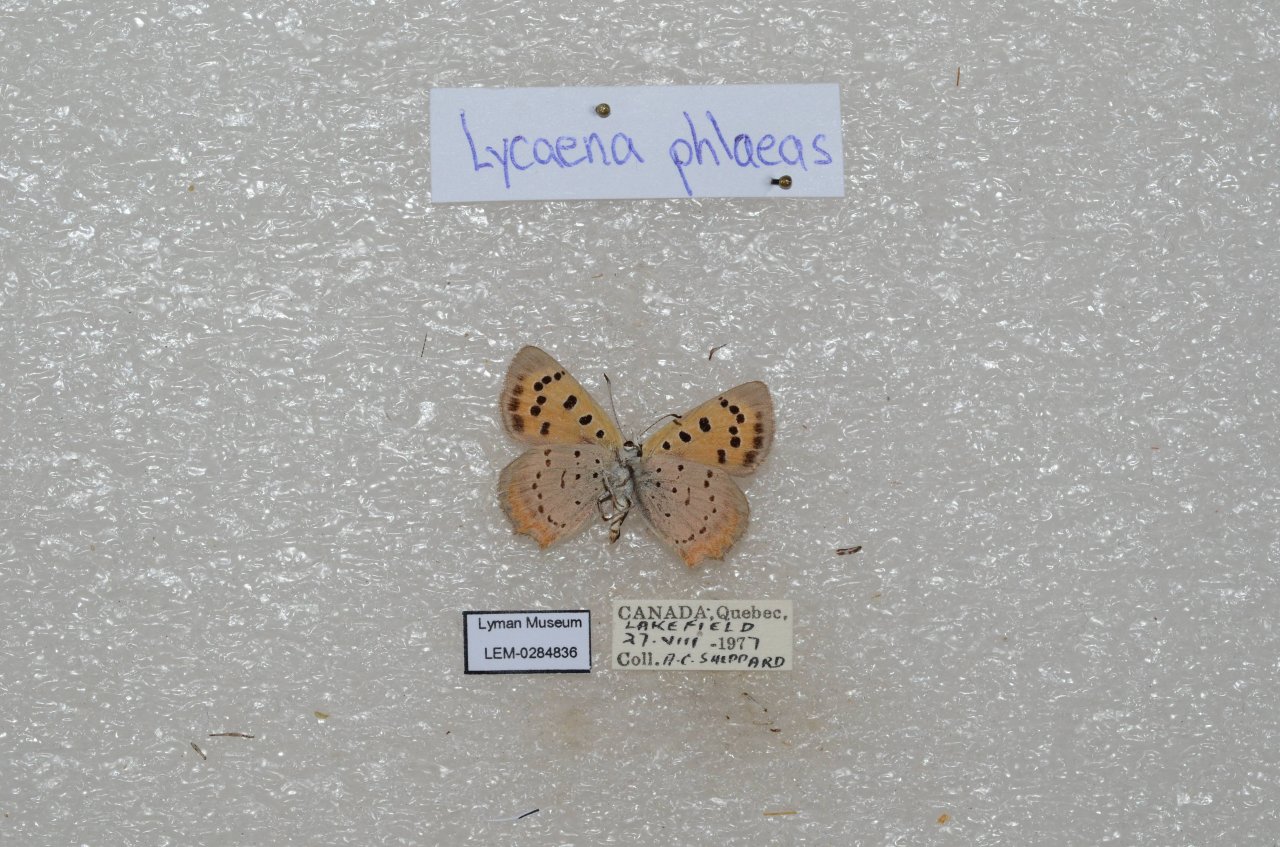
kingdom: Animalia
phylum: Arthropoda
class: Insecta
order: Lepidoptera
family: Lycaenidae
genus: Lycaena
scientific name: Lycaena phlaeas
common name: American Copper
